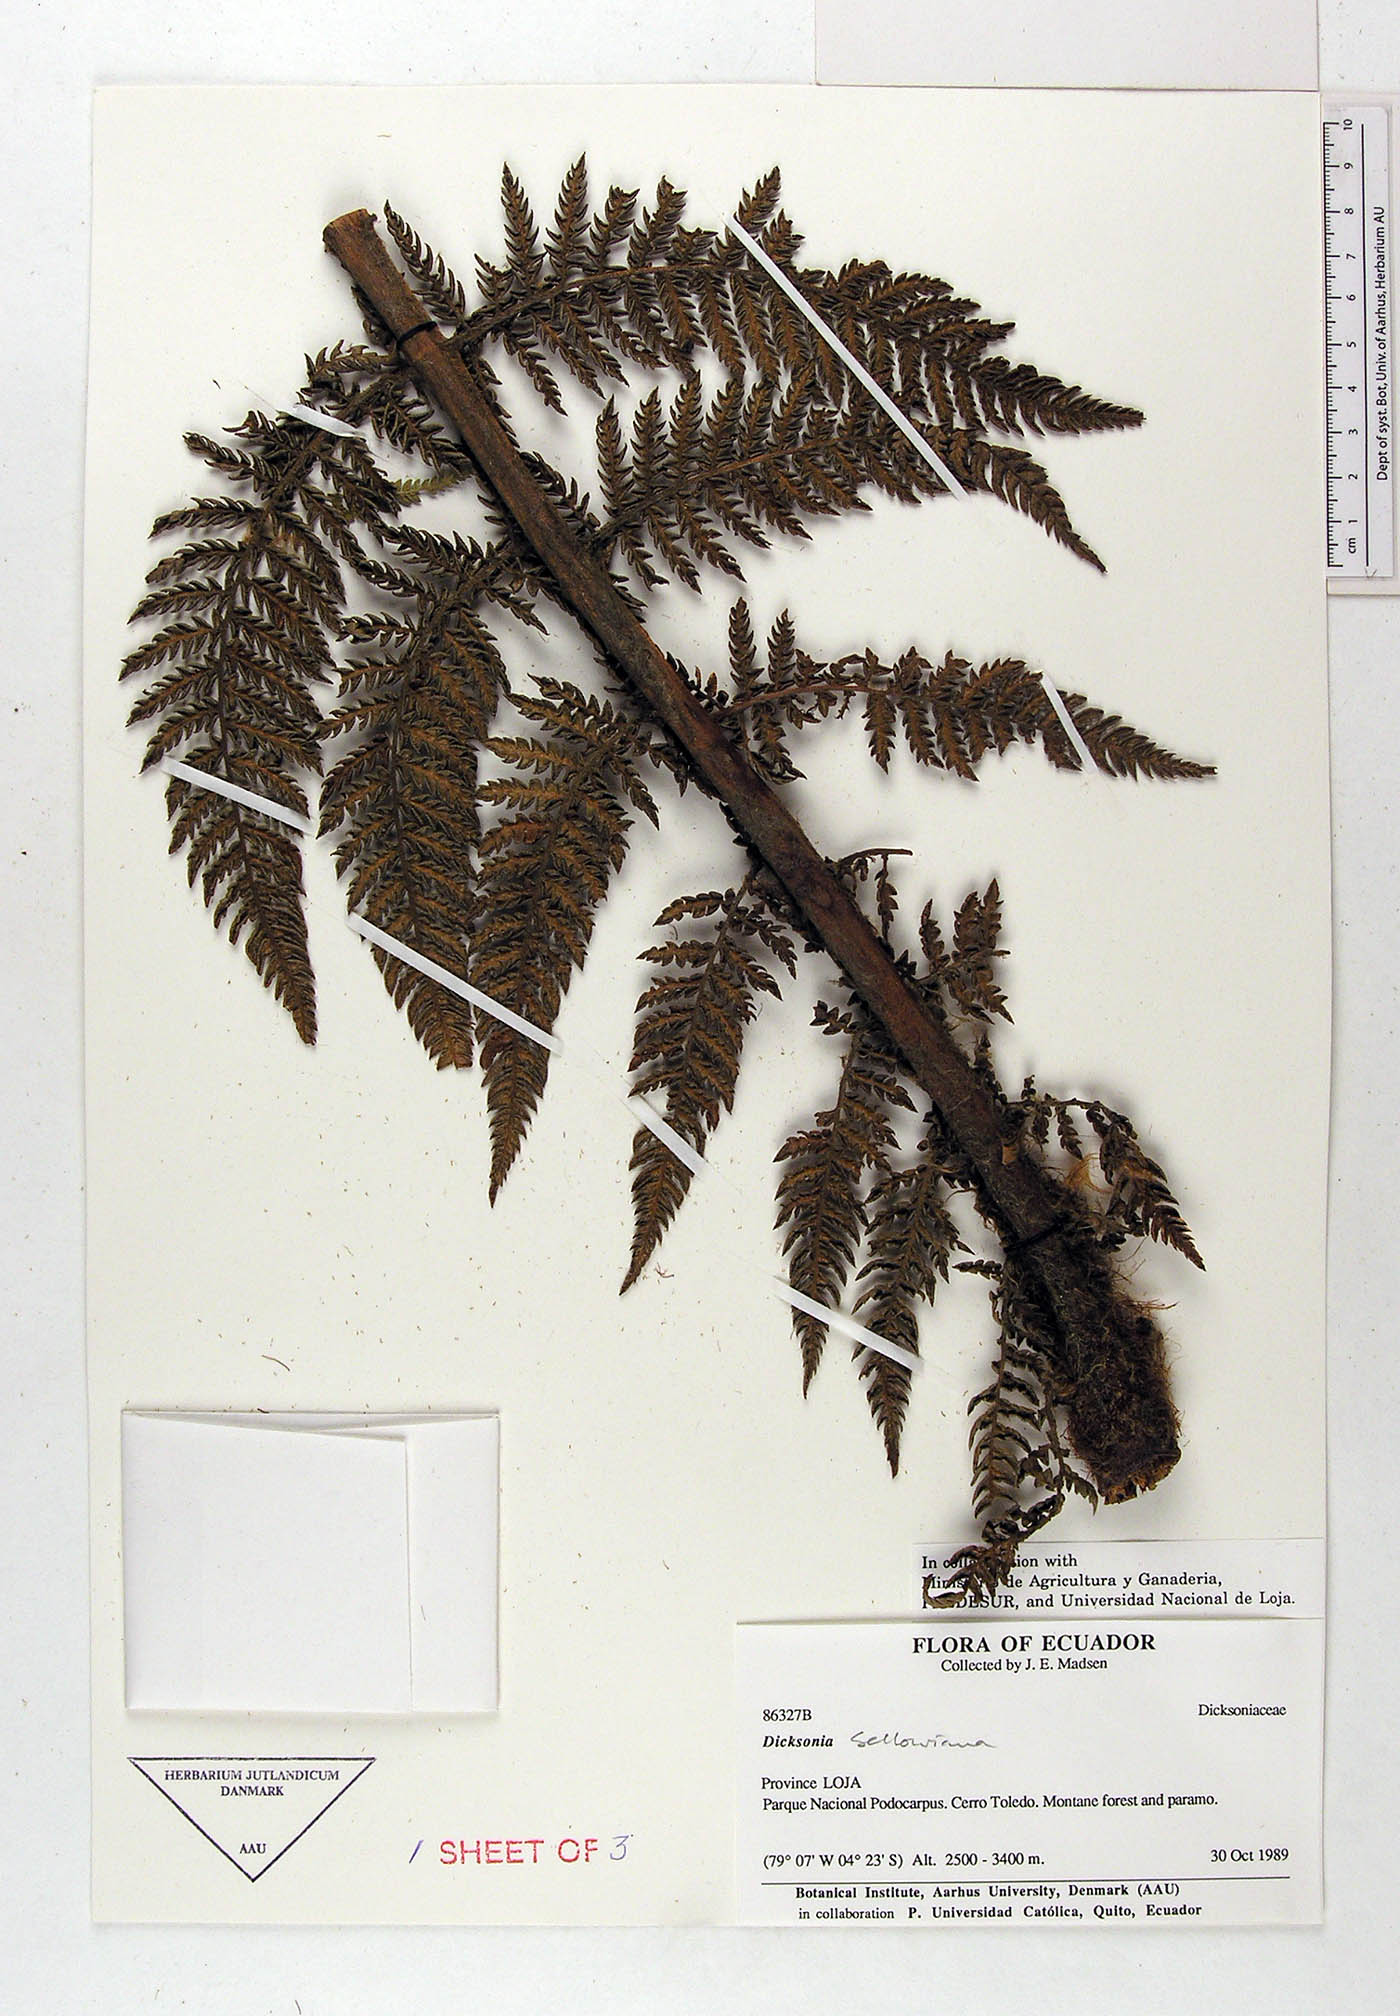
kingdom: Plantae
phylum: Tracheophyta
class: Polypodiopsida
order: Cyatheales
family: Dicksoniaceae
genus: Dicksonia
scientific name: Dicksonia sellowiana
